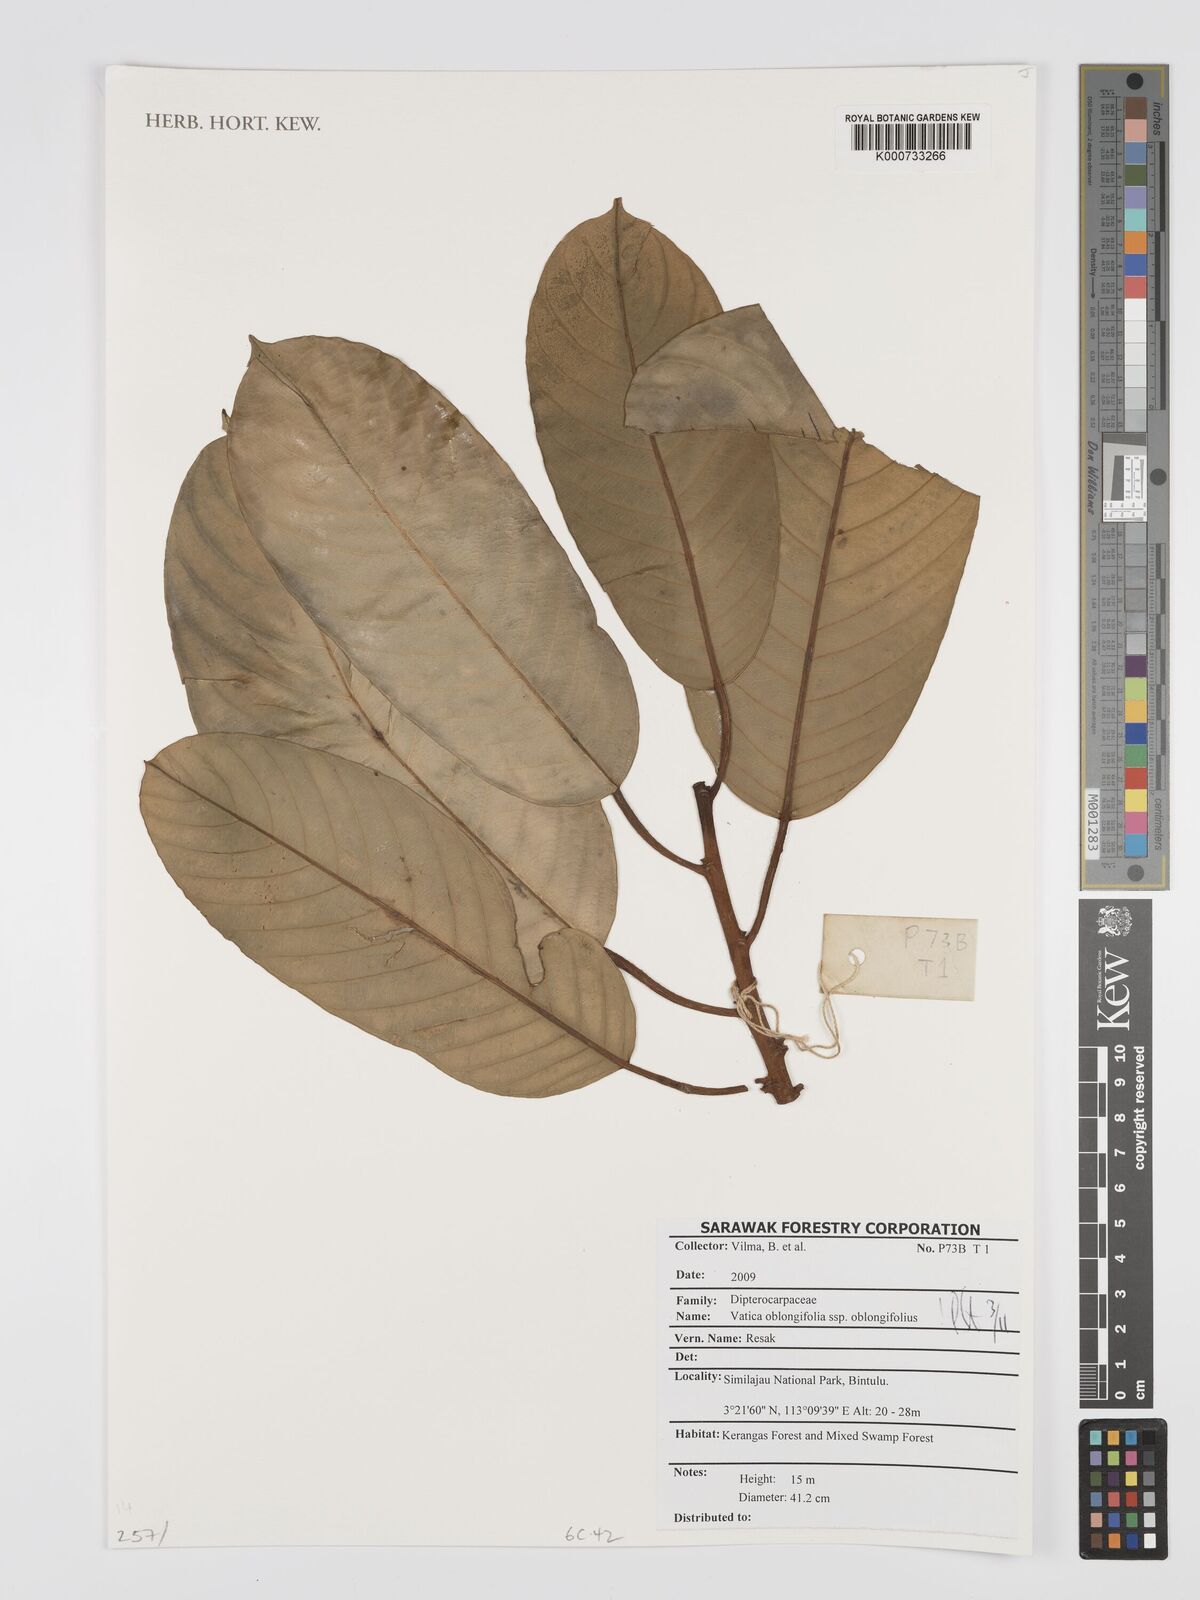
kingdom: Plantae
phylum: Tracheophyta
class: Magnoliopsida
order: Malvales
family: Dipterocarpaceae
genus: Vatica
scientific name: Vatica oblongifolia
